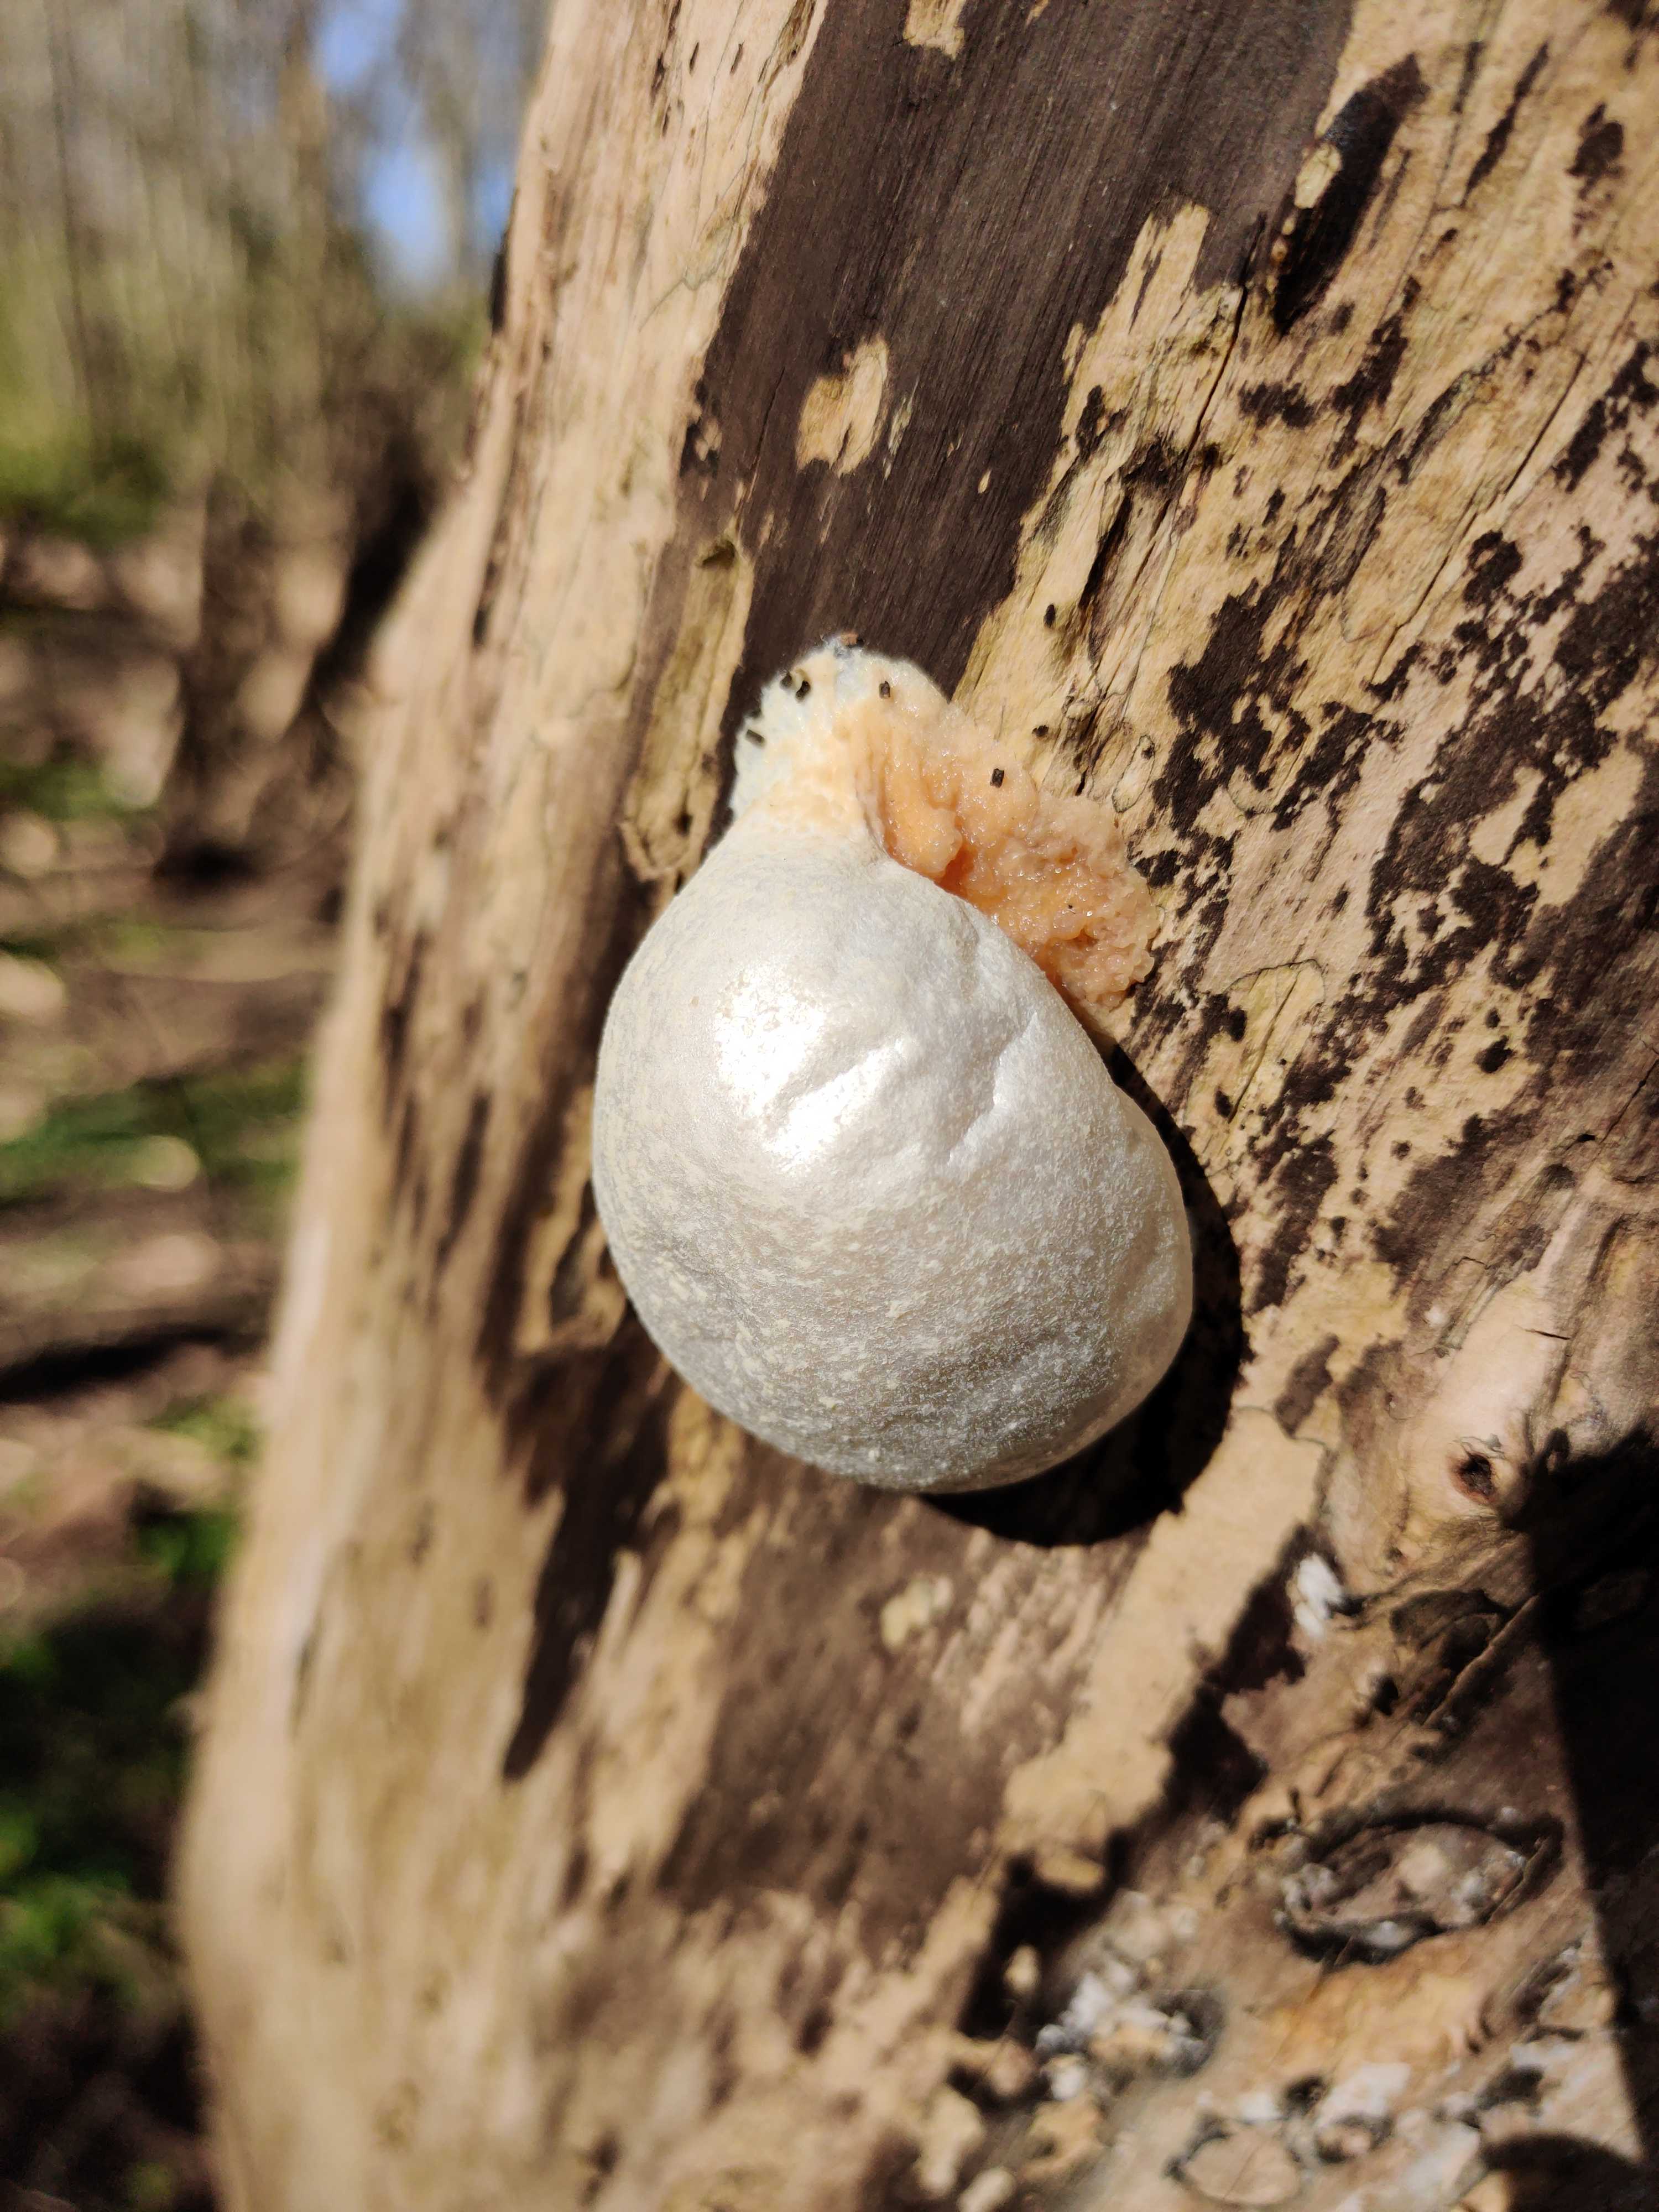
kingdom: Protozoa
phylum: Mycetozoa
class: Myxomycetes
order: Cribrariales
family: Tubiferaceae
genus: Reticularia
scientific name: Reticularia lycoperdon
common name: skinnende støvpude
